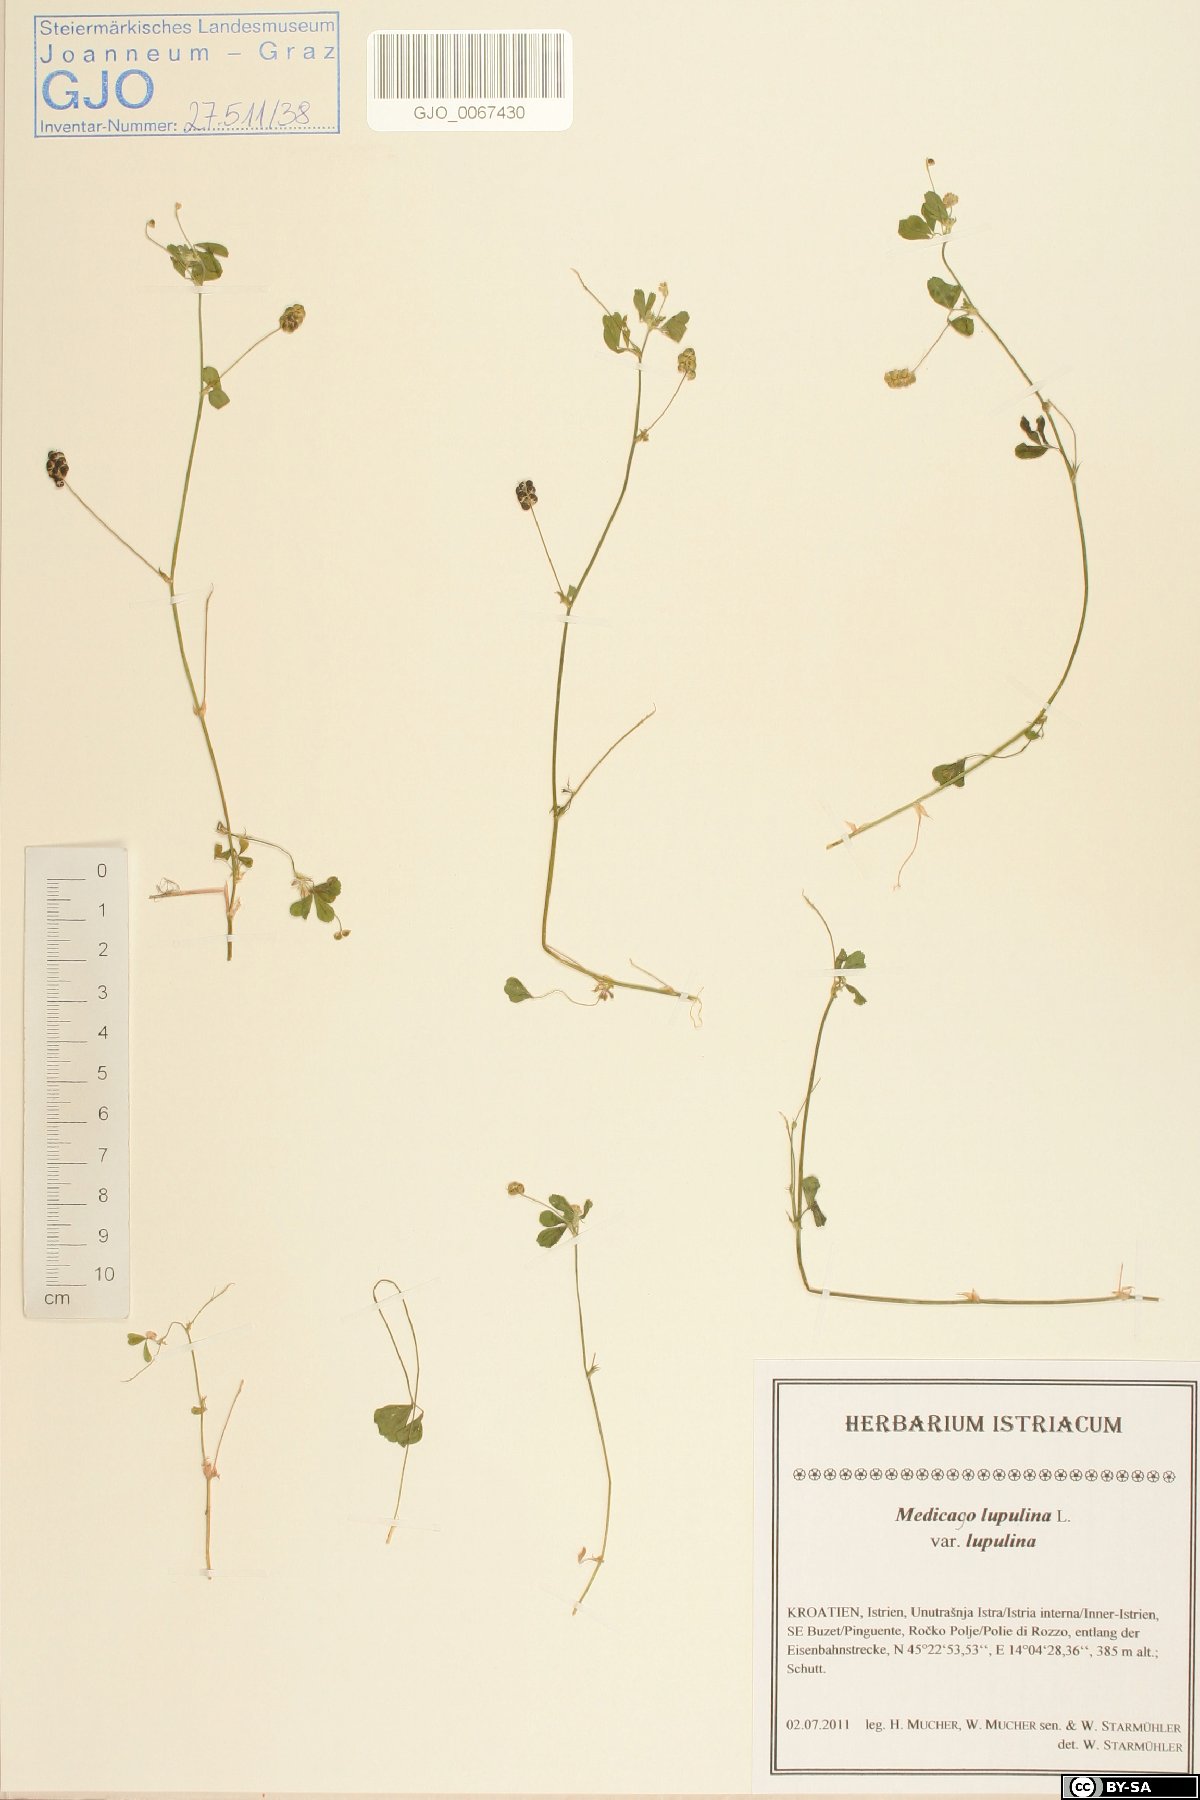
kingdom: Plantae
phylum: Tracheophyta
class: Magnoliopsida
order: Fabales
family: Fabaceae
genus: Medicago
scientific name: Medicago lupulina
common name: Black medick
